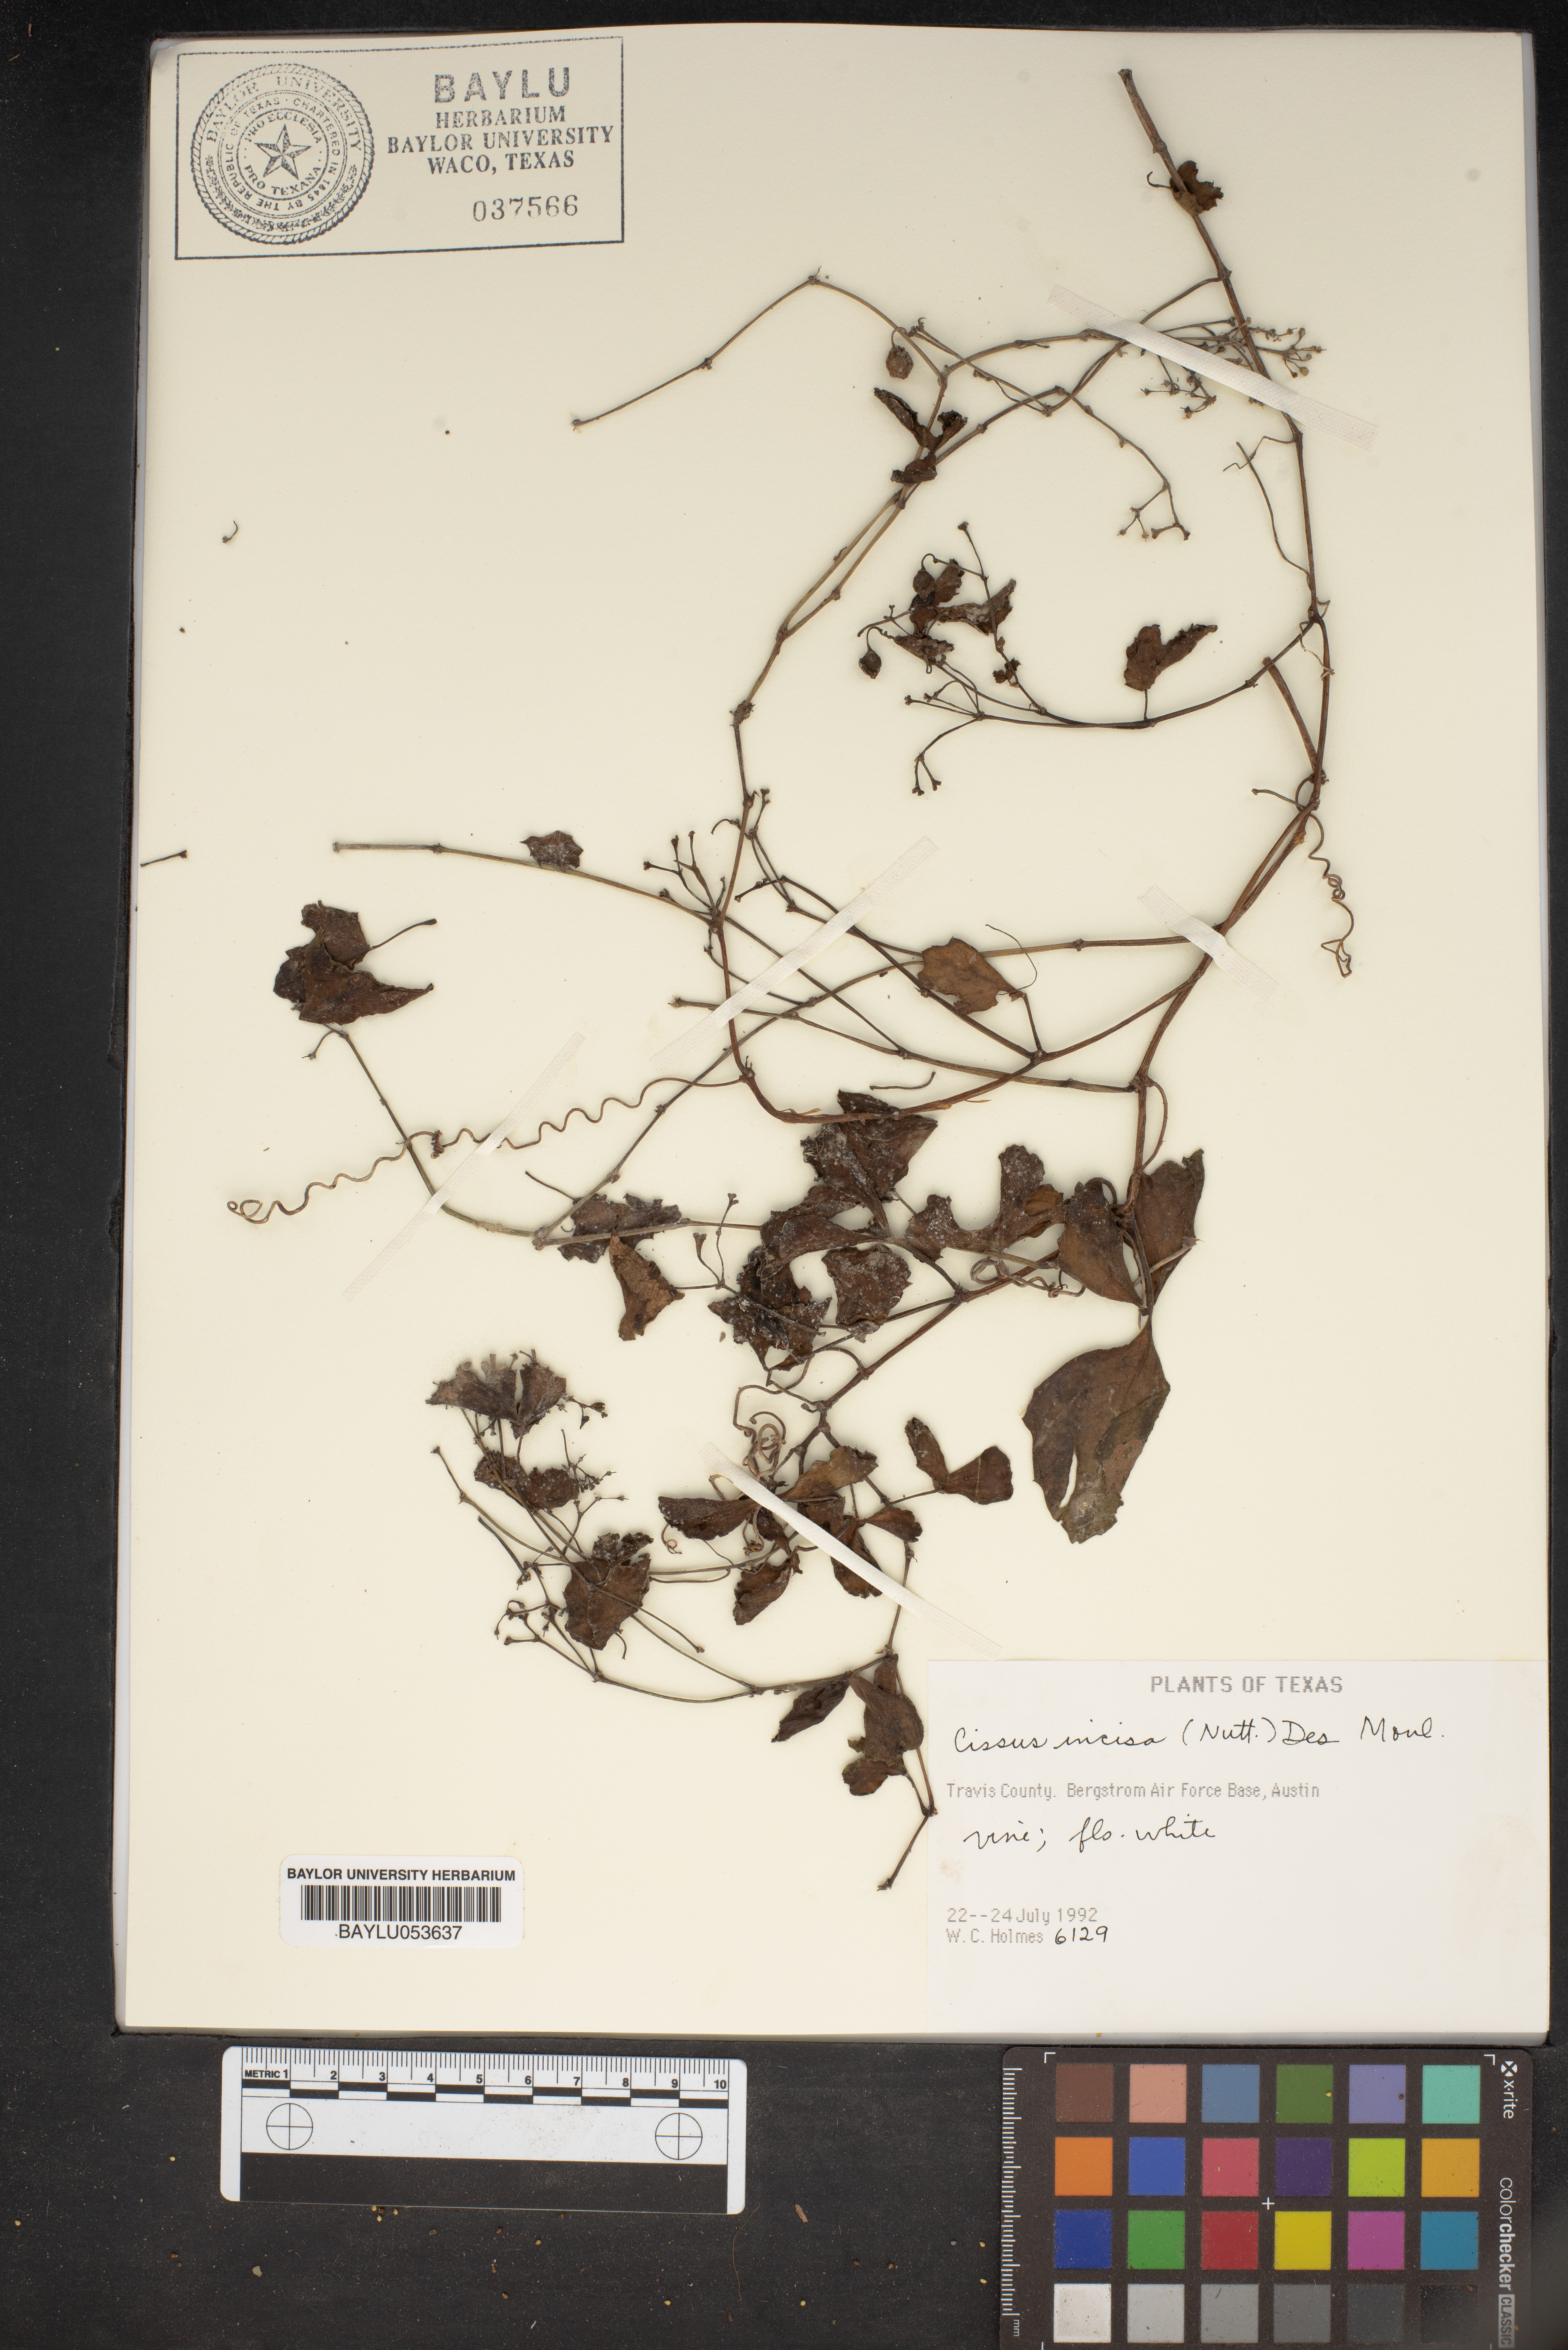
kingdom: Plantae
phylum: Tracheophyta
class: Magnoliopsida
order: Vitales
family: Vitaceae
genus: Cissus
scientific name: Cissus trifoliata
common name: Vine-sorrel
